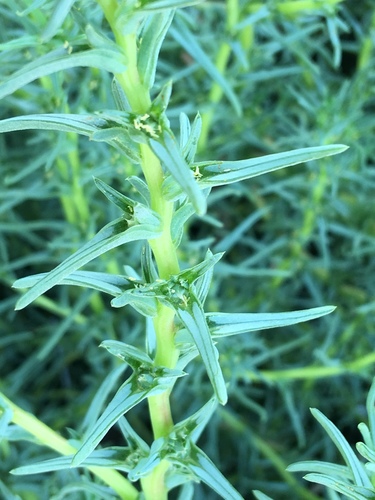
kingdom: Plantae
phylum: Tracheophyta
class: Magnoliopsida
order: Caryophyllales
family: Amaranthaceae
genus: Salsola
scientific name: Salsola soda
